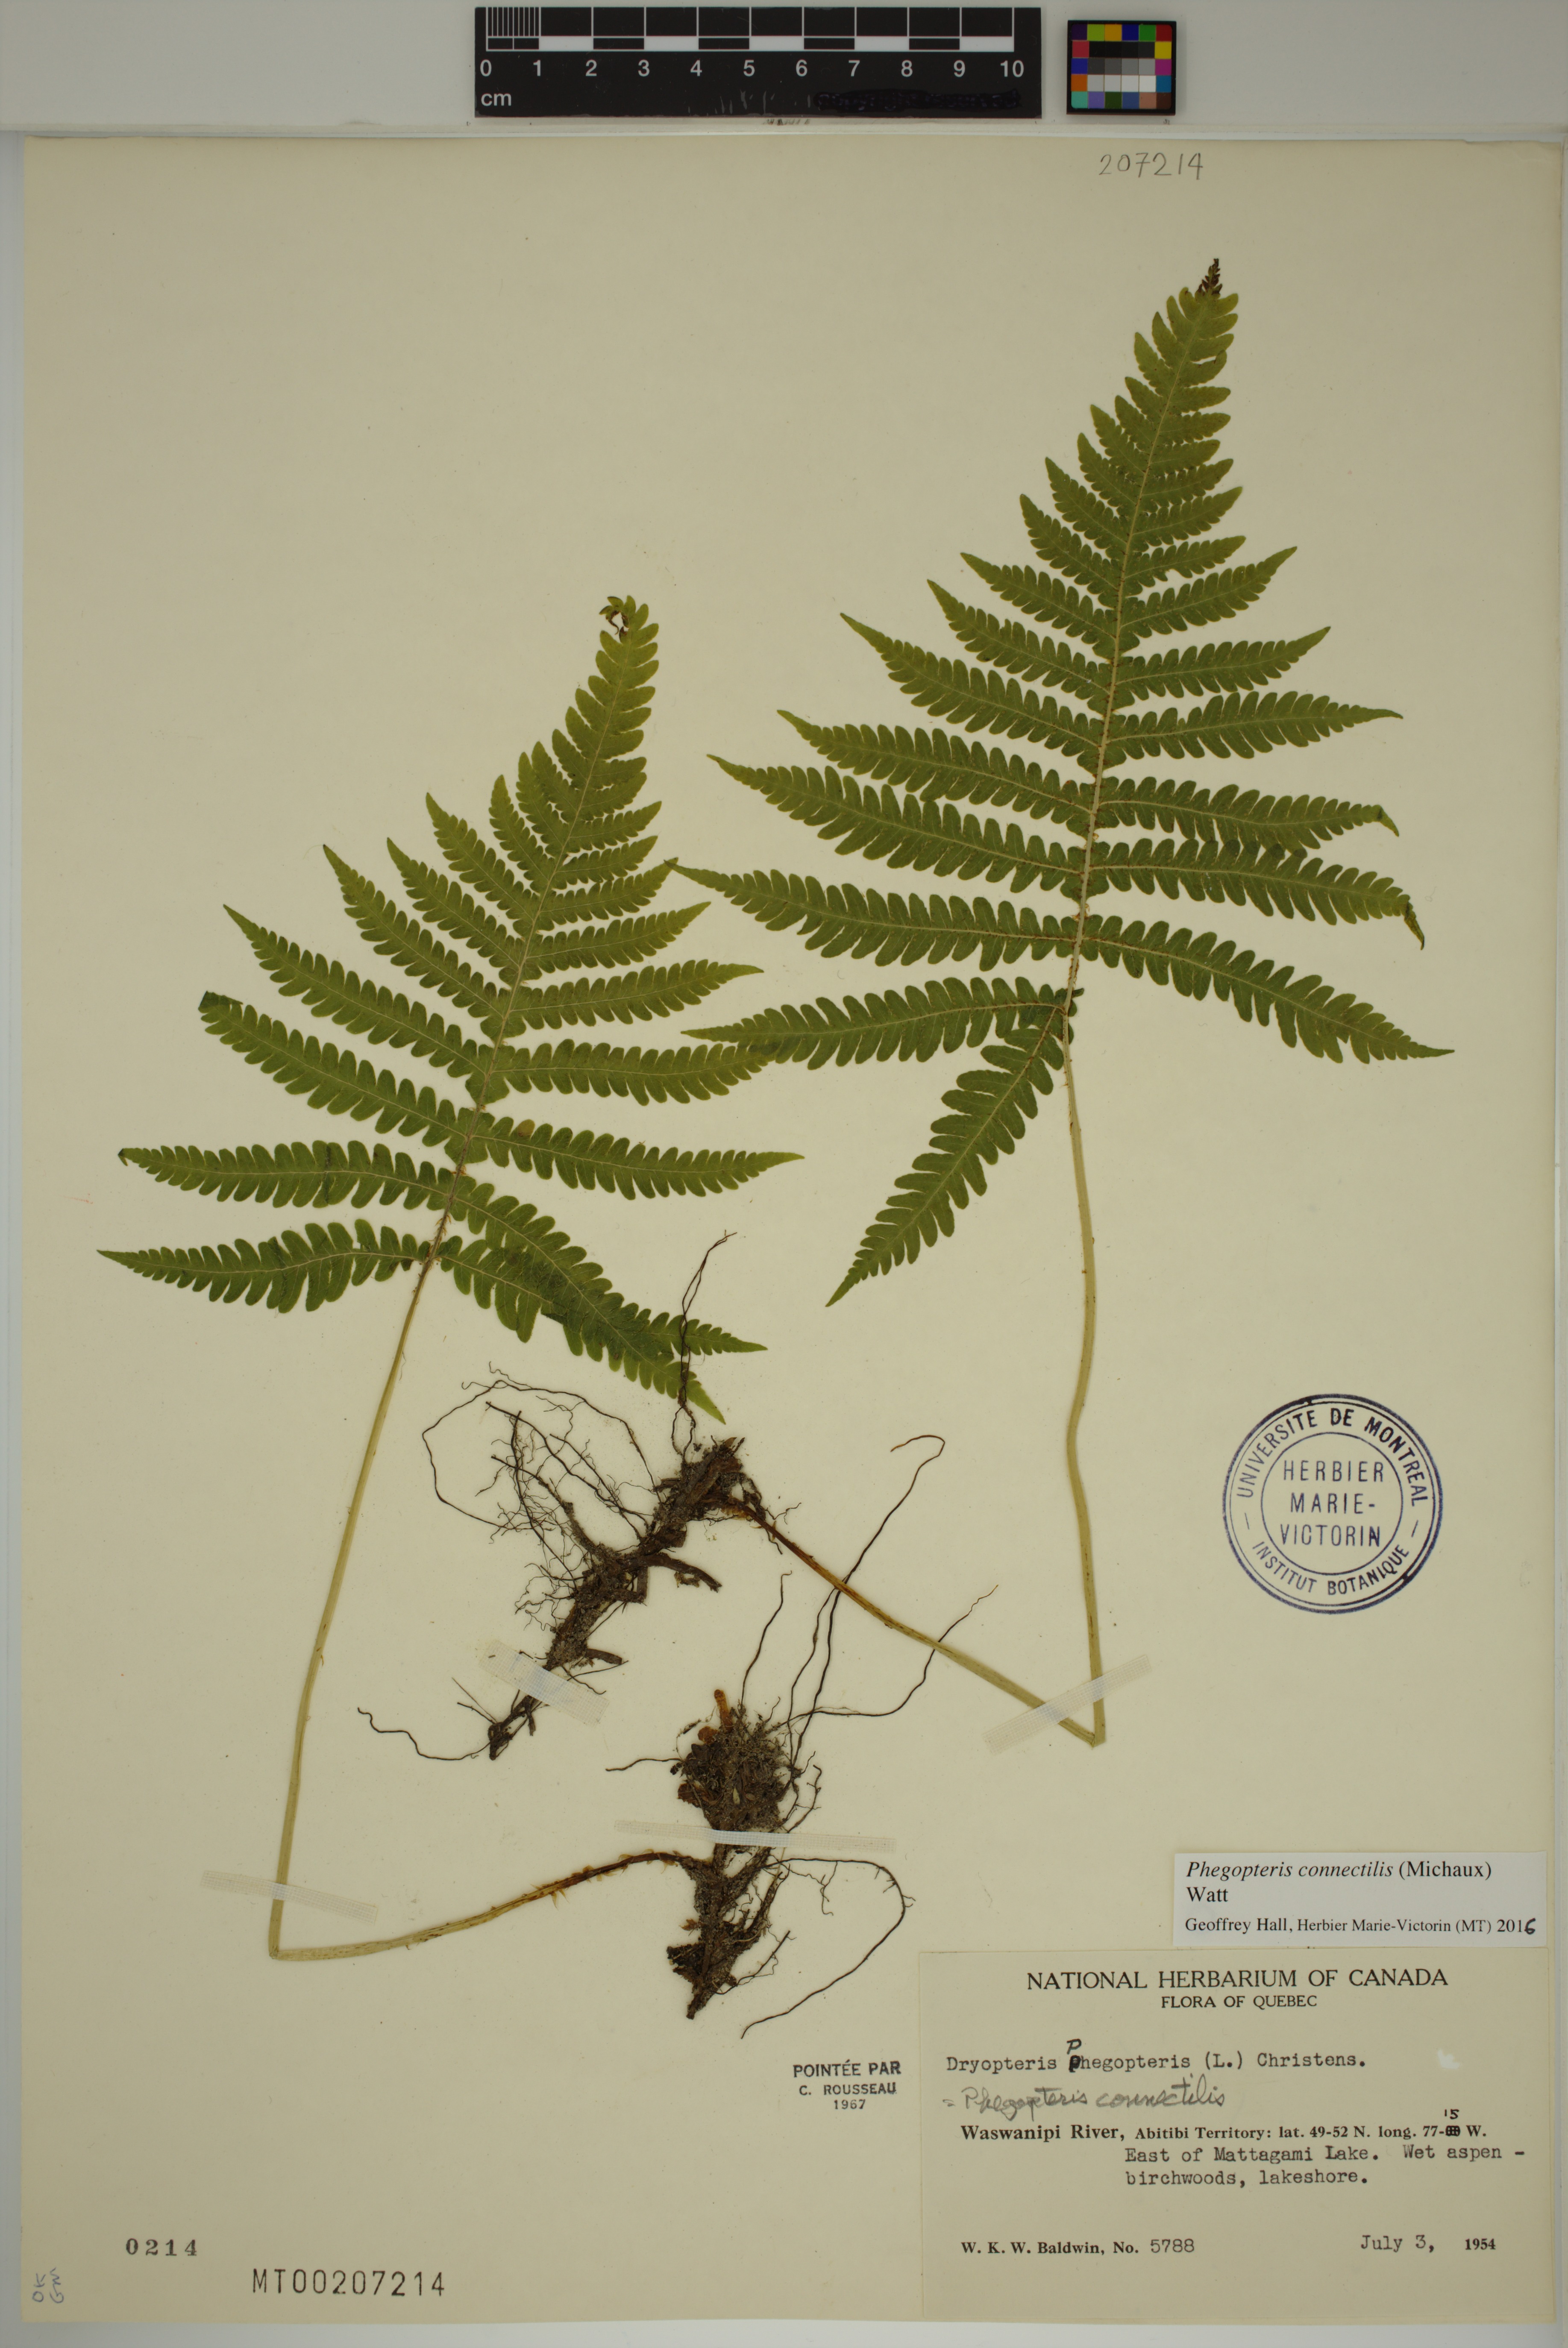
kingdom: Plantae
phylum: Tracheophyta
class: Polypodiopsida
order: Polypodiales
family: Thelypteridaceae
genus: Phegopteris
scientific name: Phegopteris connectilis
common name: Beech fern
